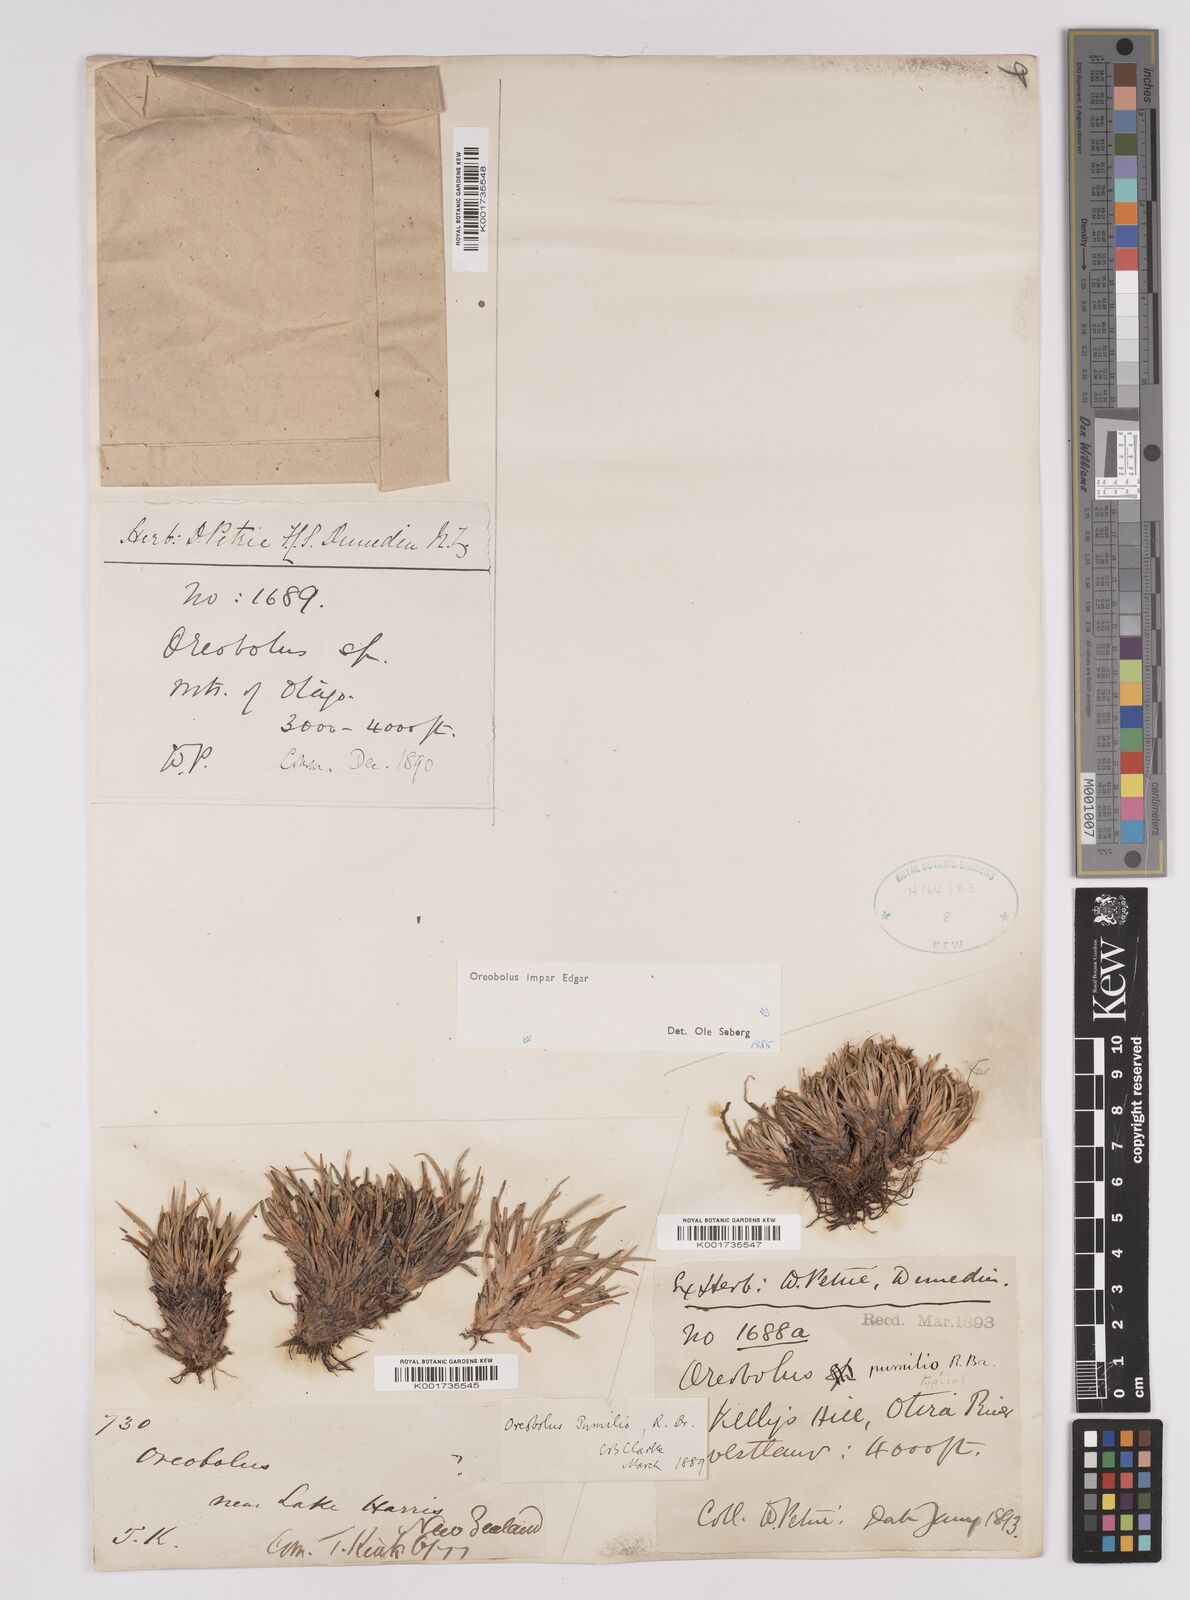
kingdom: Plantae
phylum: Tracheophyta
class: Liliopsida
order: Poales
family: Cyperaceae
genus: Oreobolus
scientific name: Oreobolus impar
